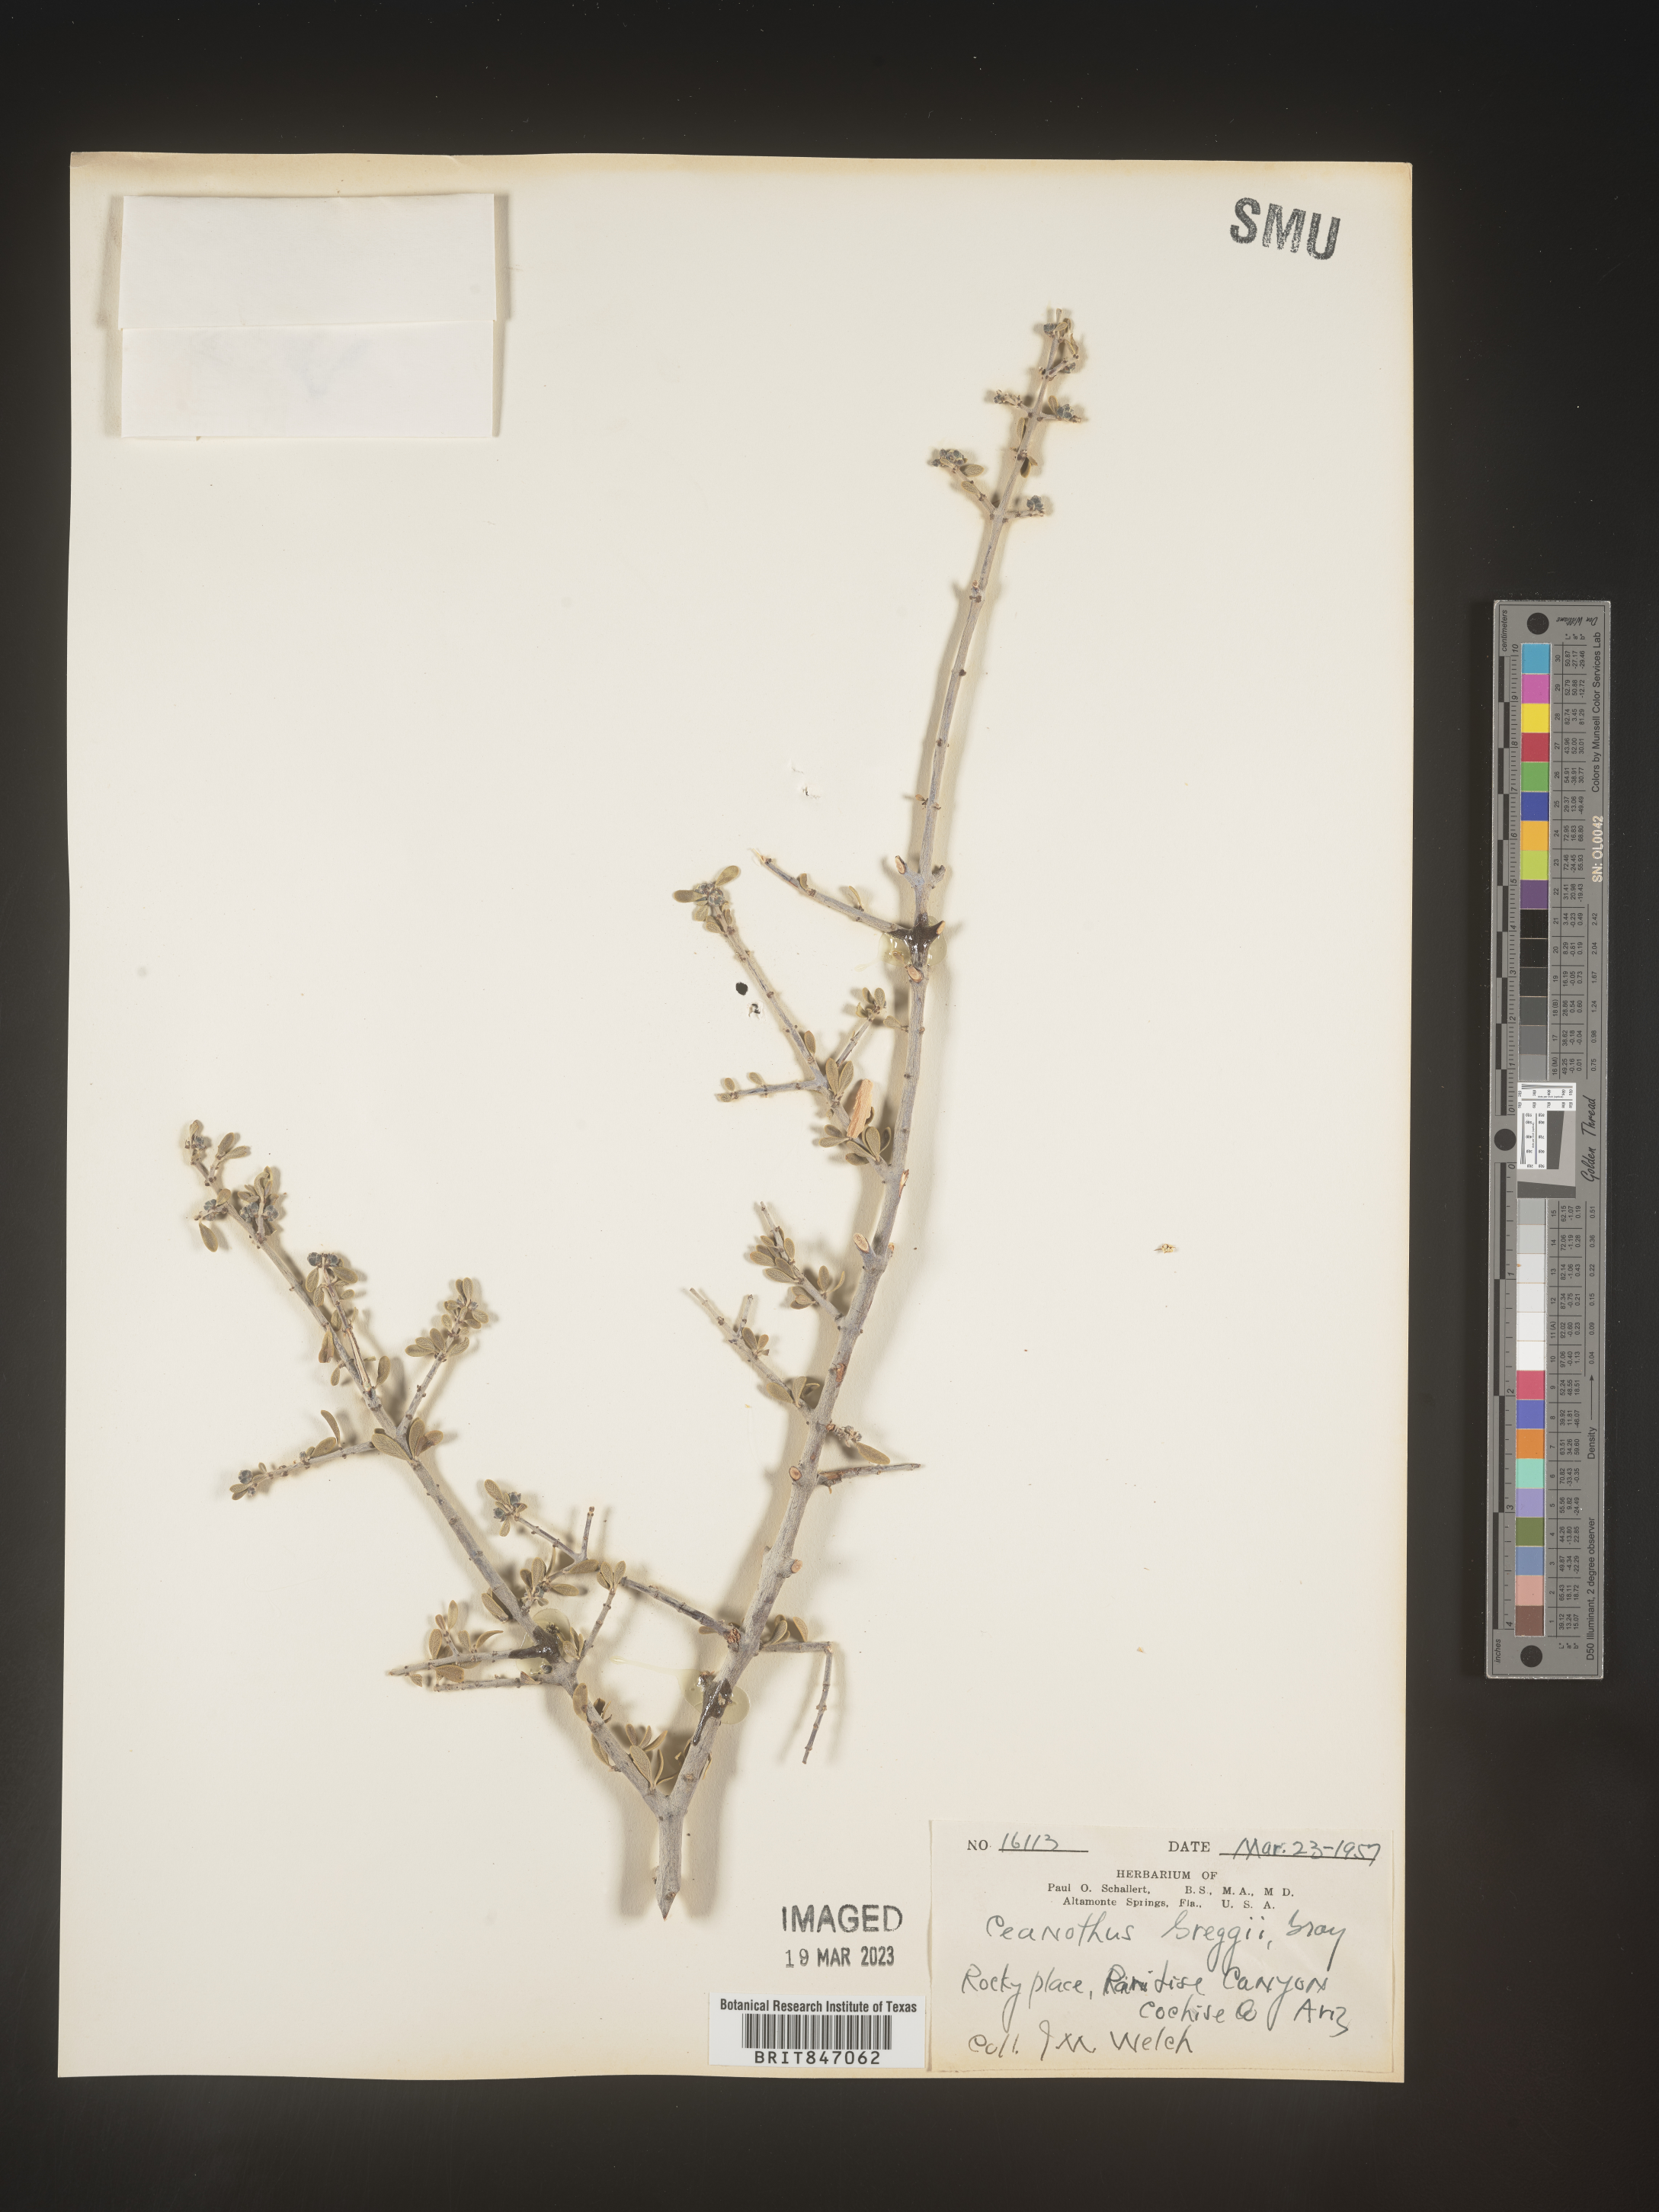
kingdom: Plantae
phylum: Tracheophyta
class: Magnoliopsida
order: Rosales
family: Rhamnaceae
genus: Ceanothus
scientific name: Ceanothus
